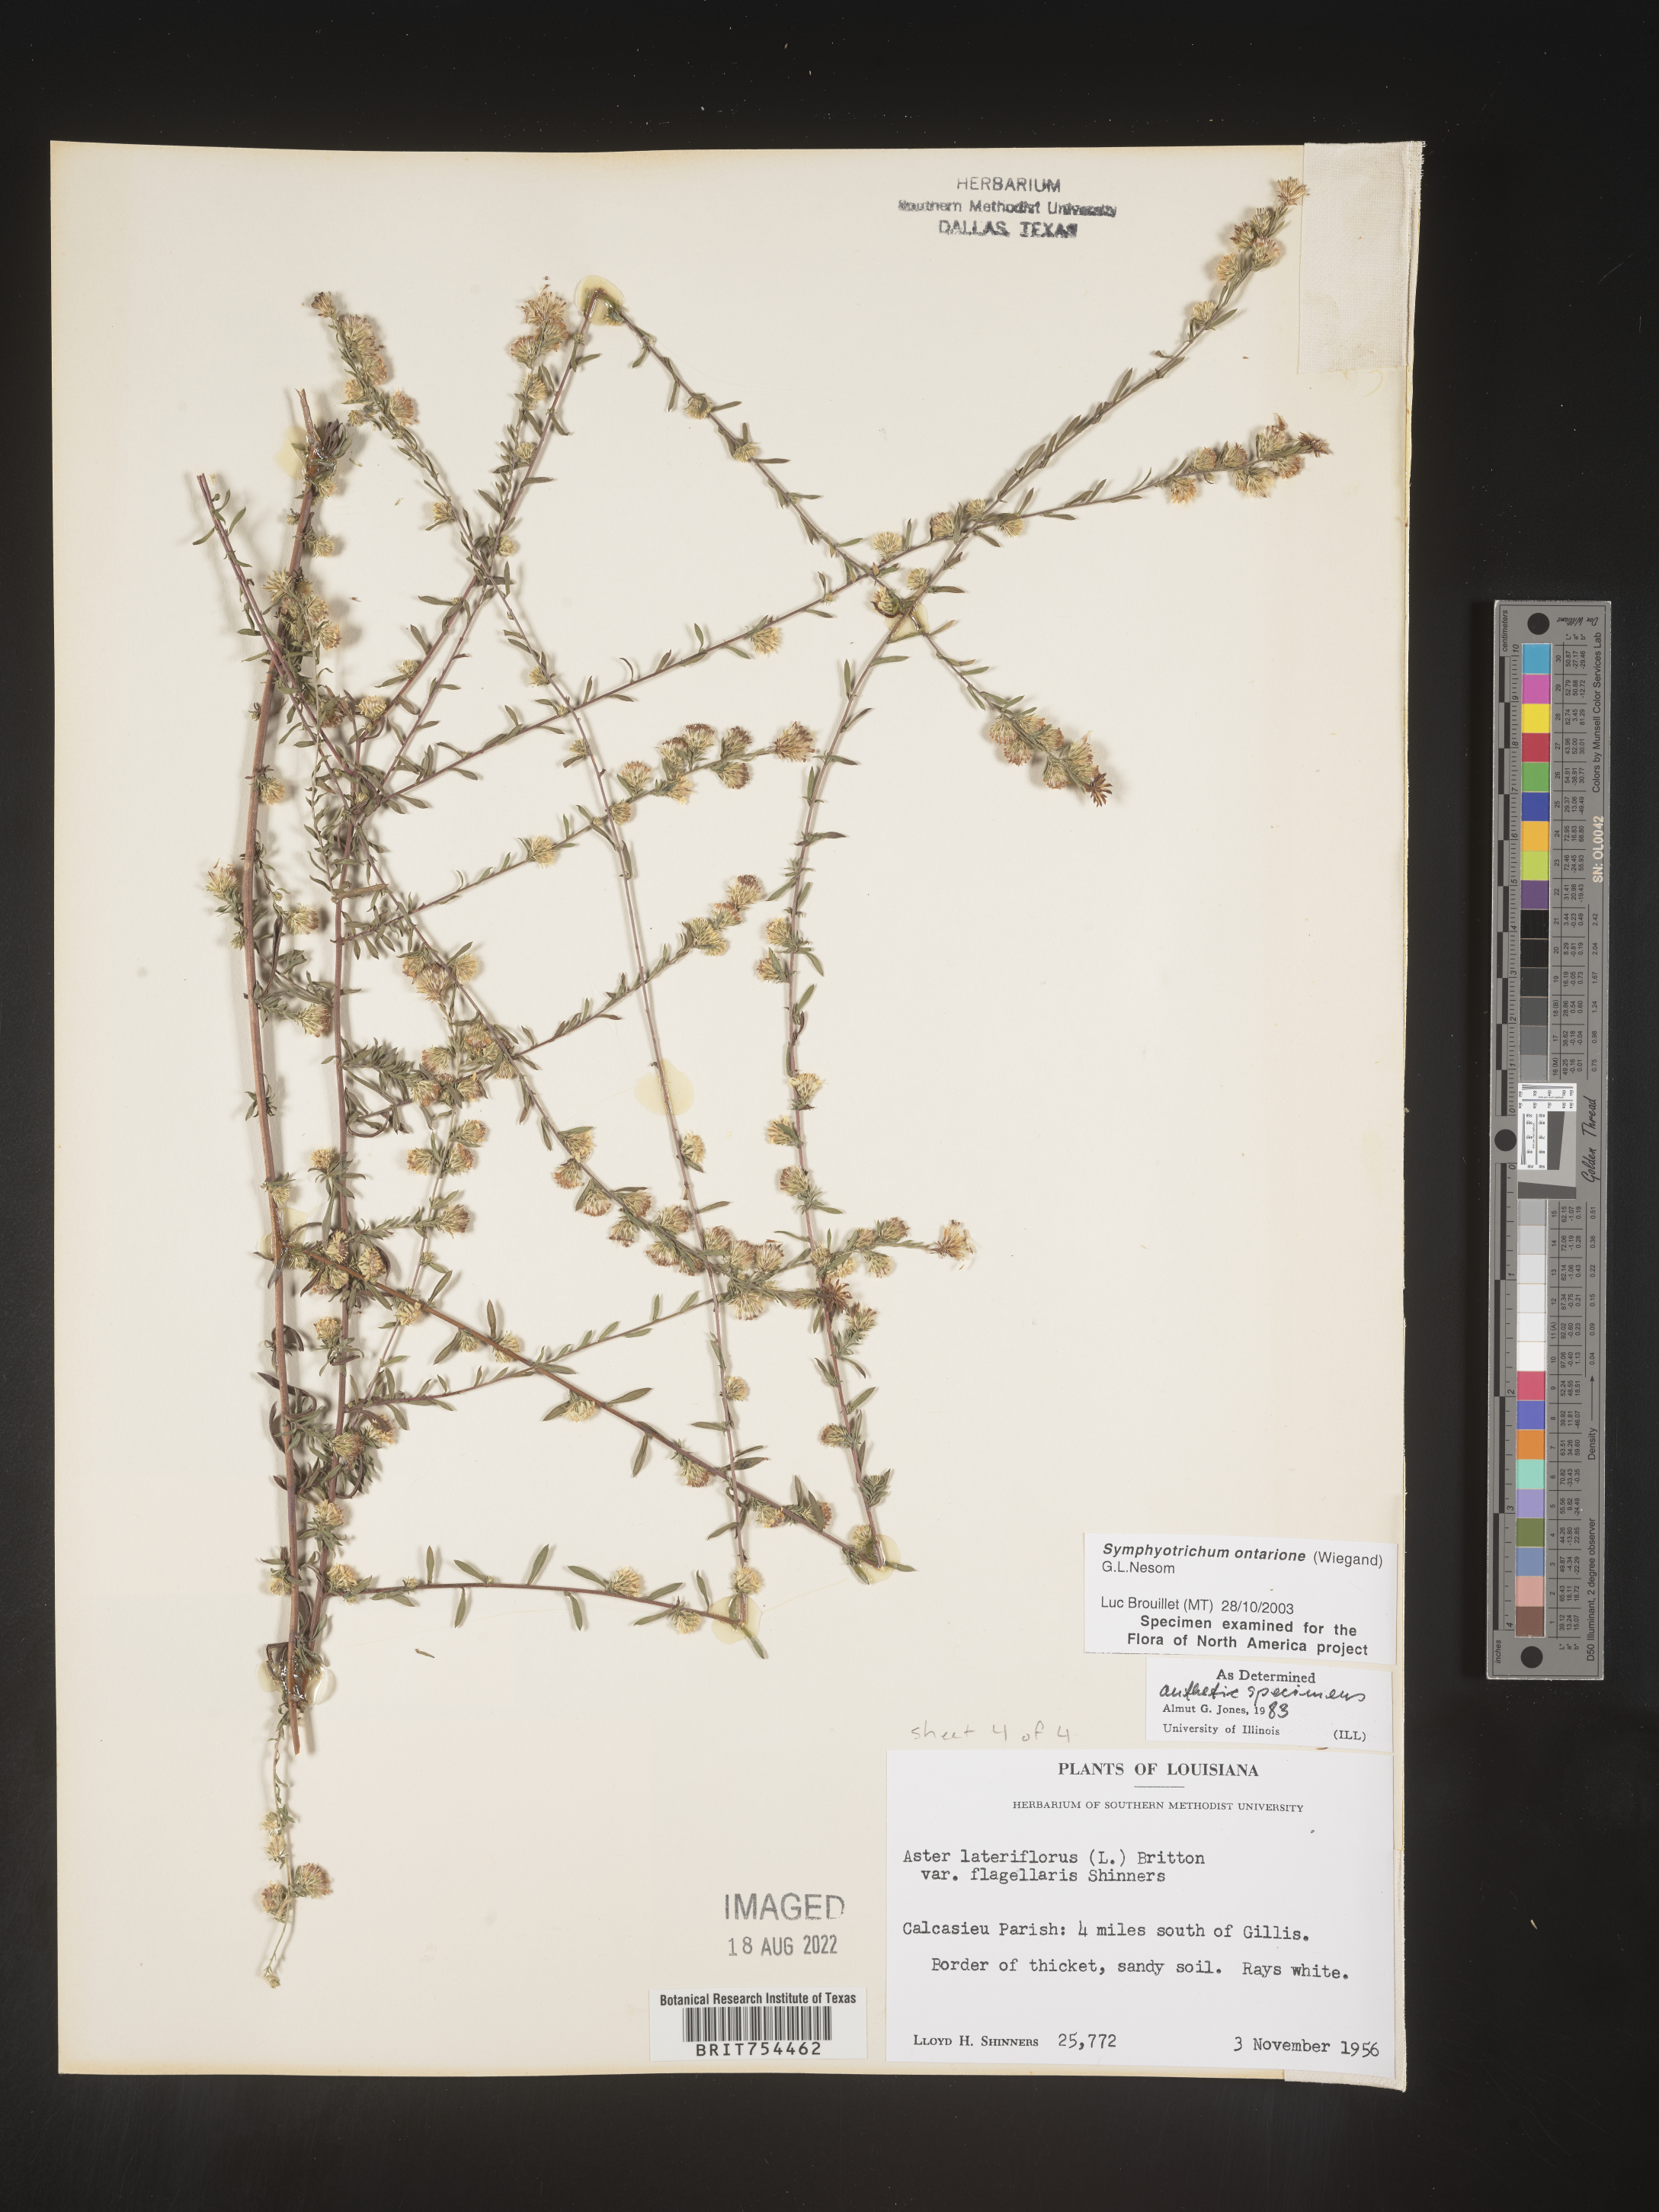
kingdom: Plantae
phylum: Tracheophyta
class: Magnoliopsida
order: Asterales
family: Asteraceae
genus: Symphyotrichum
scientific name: Symphyotrichum ontarionis
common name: Bottomland aster
